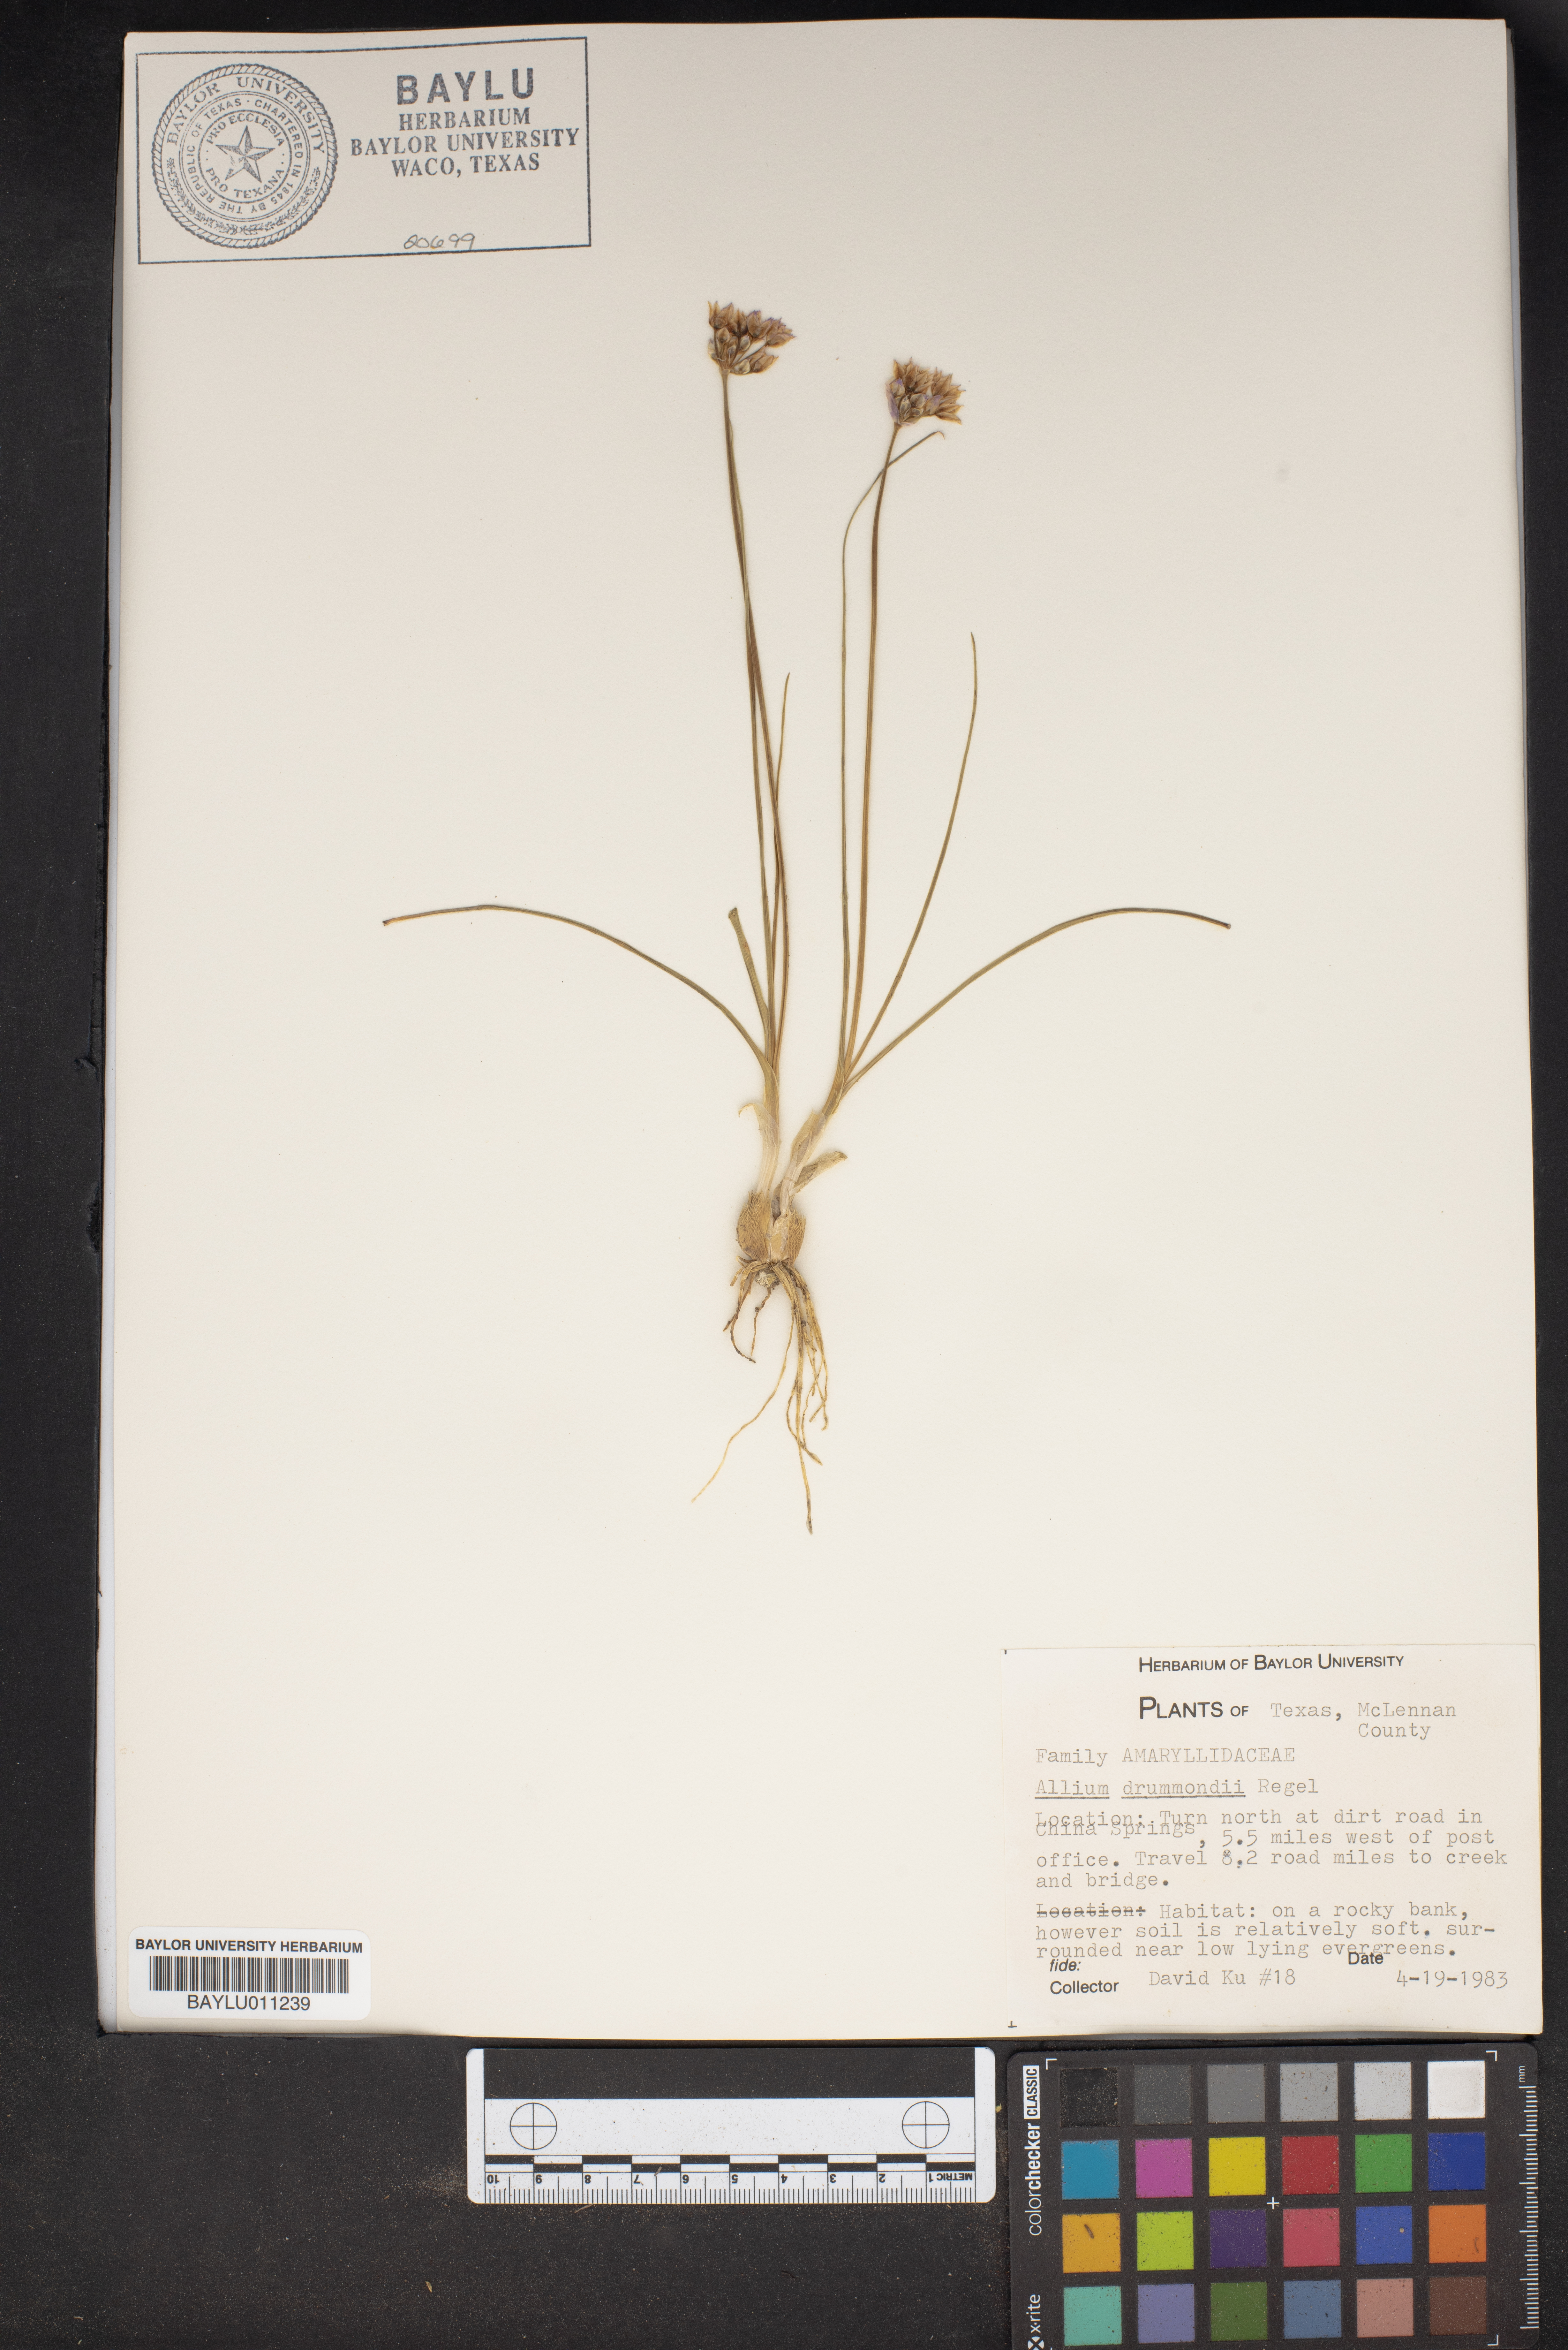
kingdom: Plantae
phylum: Tracheophyta
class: Liliopsida
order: Asparagales
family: Amaryllidaceae
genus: Allium
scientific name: Allium drummondii
